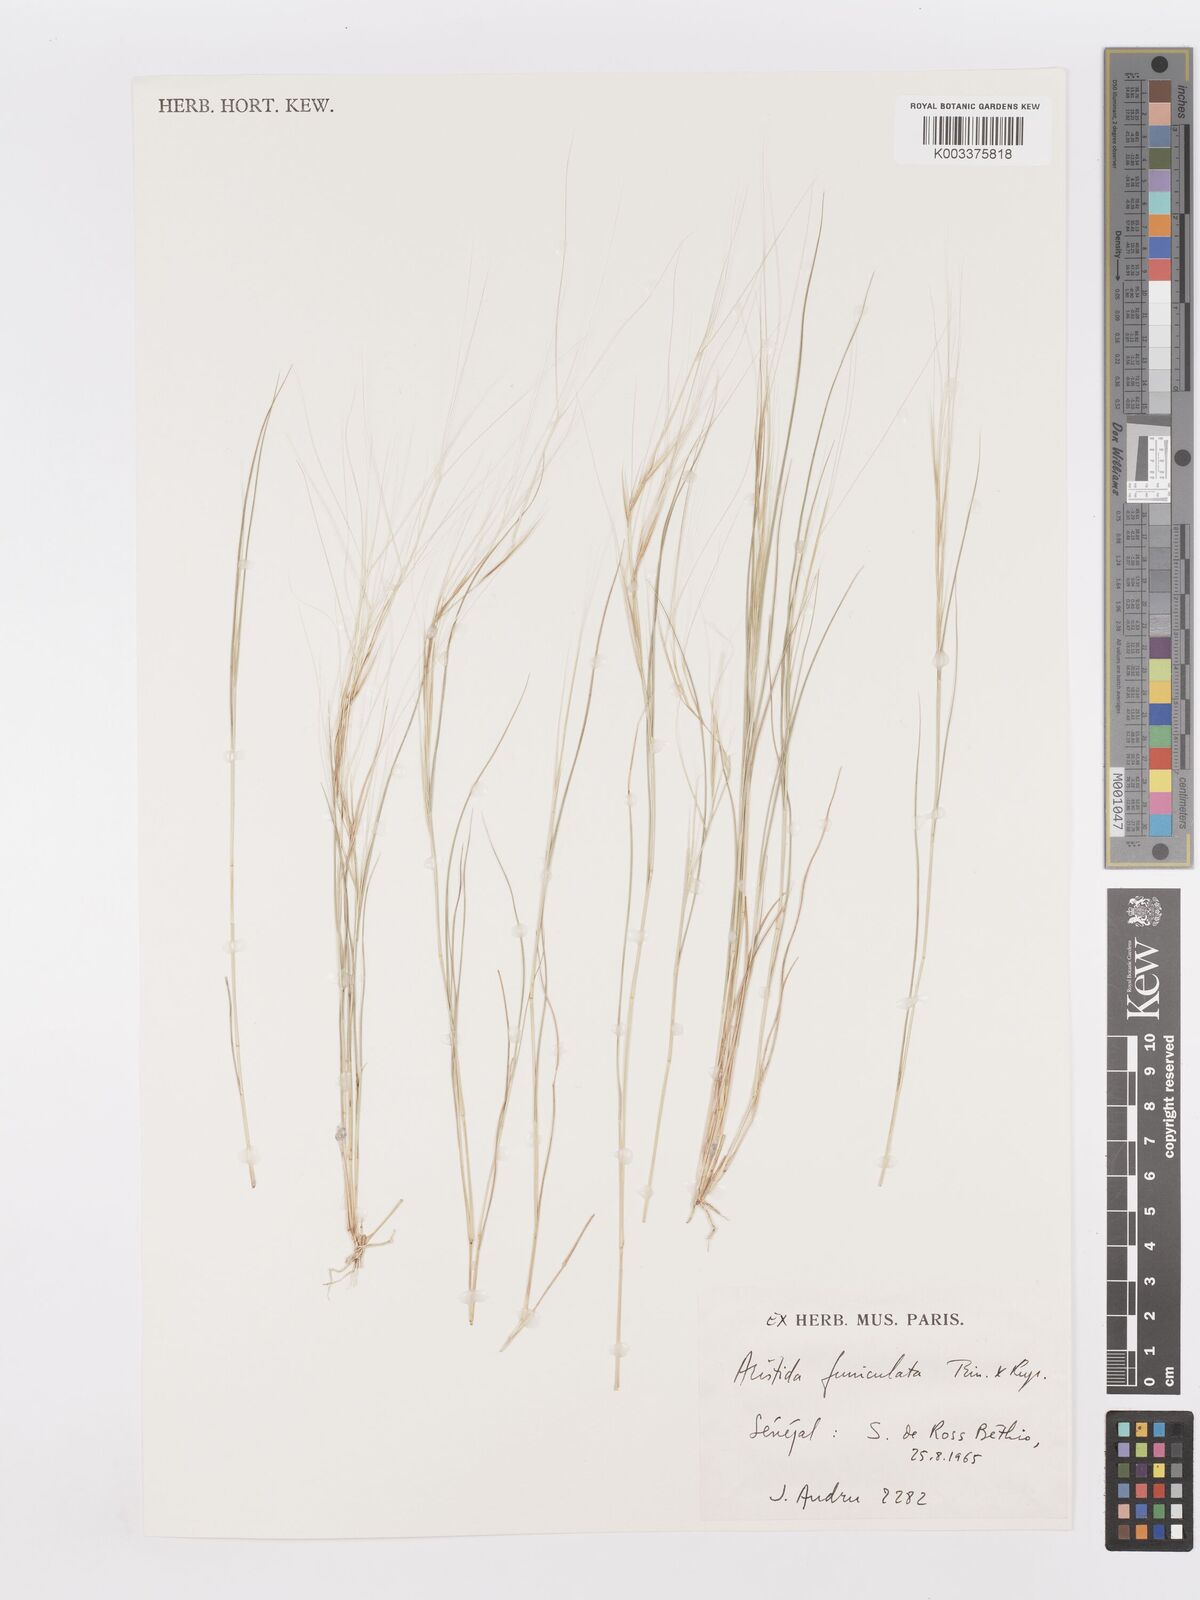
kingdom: Plantae
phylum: Tracheophyta
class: Liliopsida
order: Poales
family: Poaceae
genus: Aristida
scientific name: Aristida funiculata
